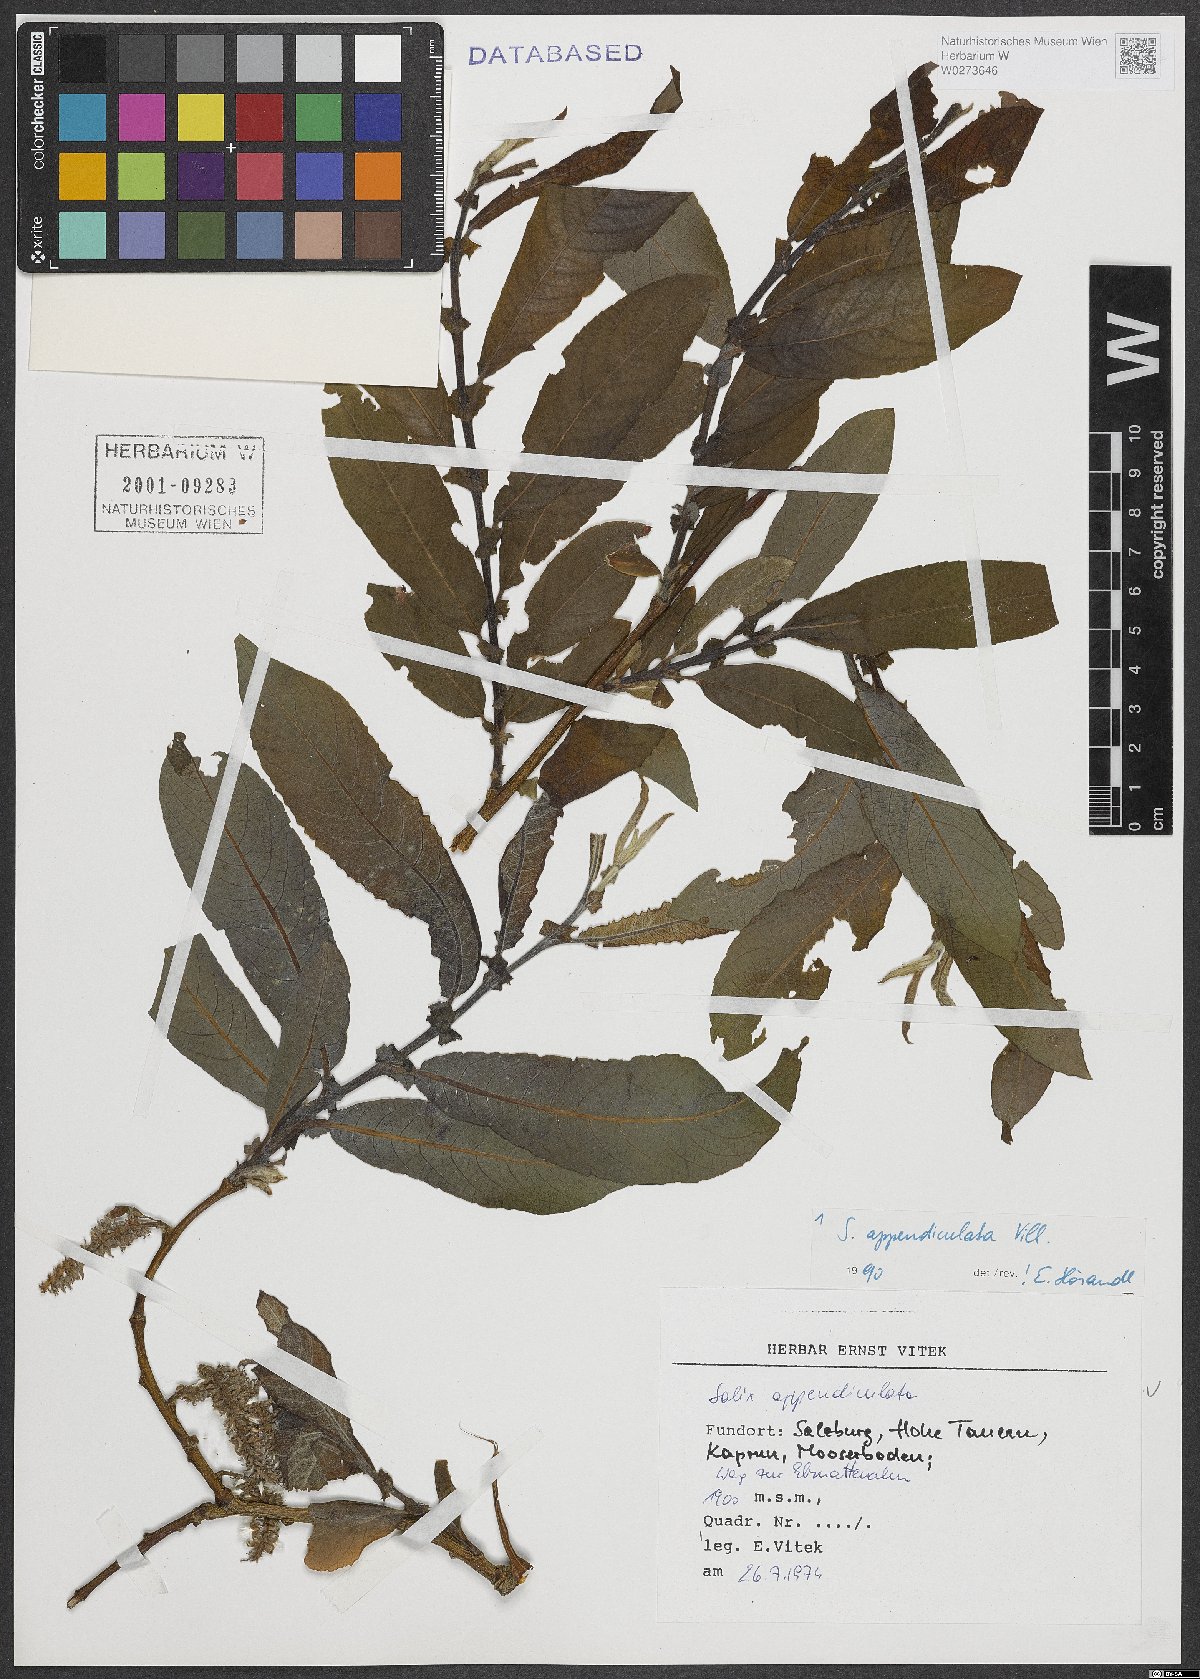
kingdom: Plantae
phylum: Tracheophyta
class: Magnoliopsida
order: Malpighiales
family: Salicaceae
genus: Salix
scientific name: Salix appendiculata
